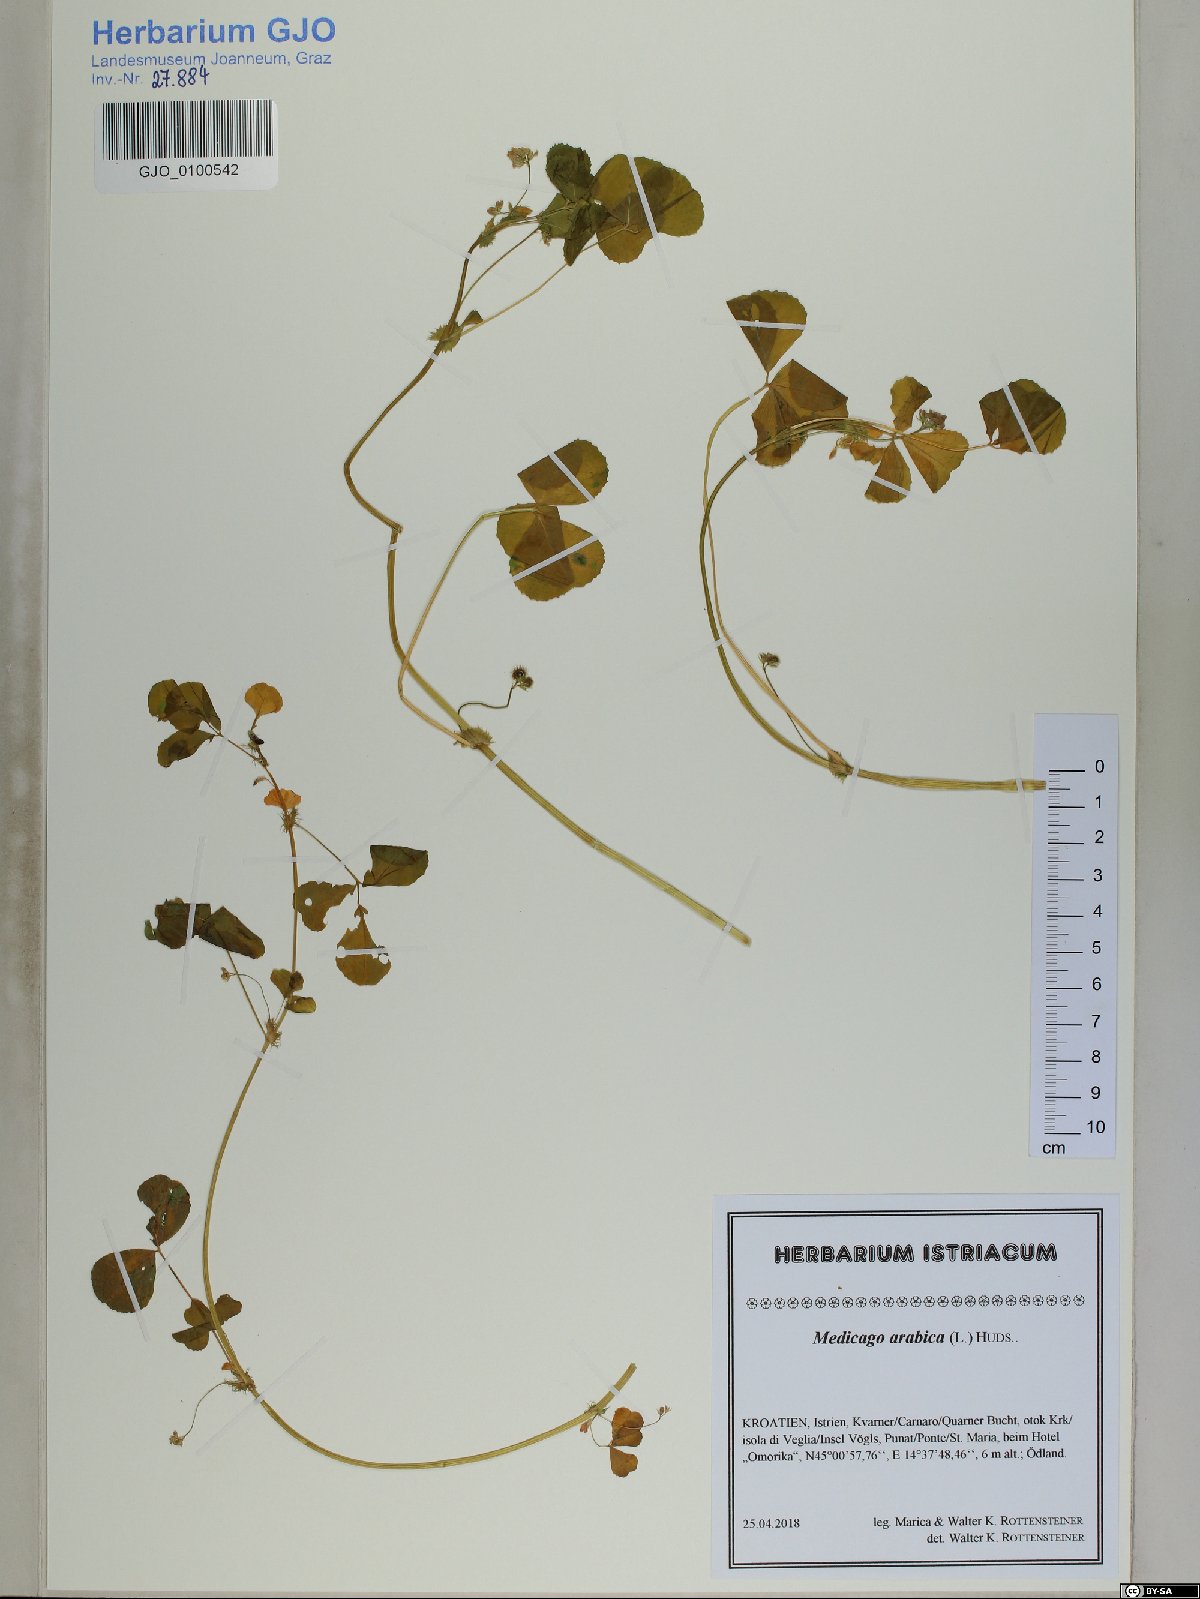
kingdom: Plantae
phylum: Tracheophyta
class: Magnoliopsida
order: Fabales
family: Fabaceae
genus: Medicago
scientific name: Medicago arabica
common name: Spotted medick
